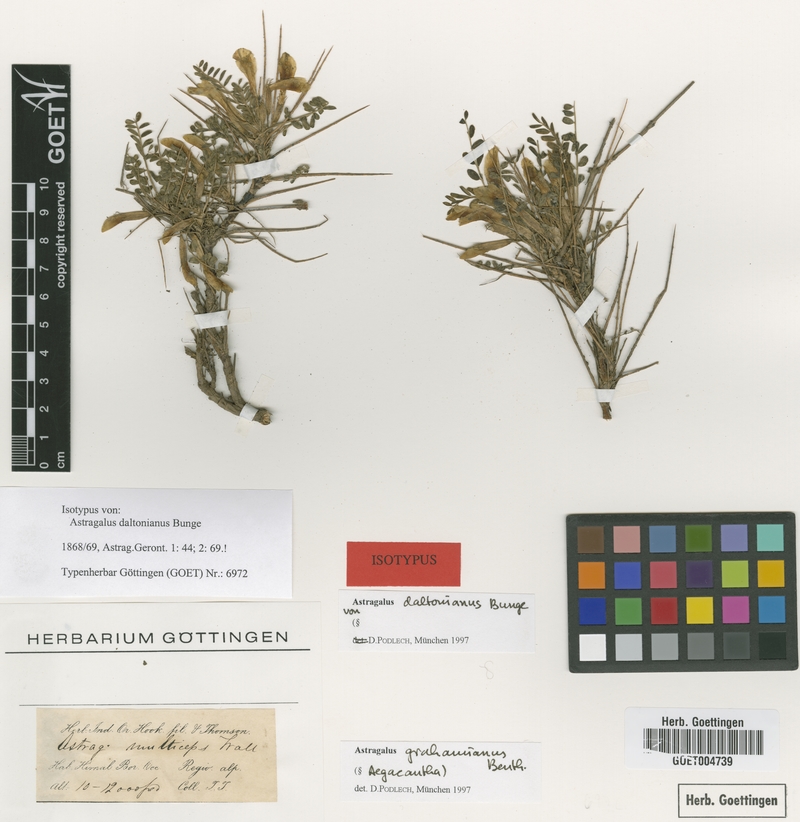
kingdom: Plantae
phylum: Tracheophyta
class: Magnoliopsida
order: Fabales
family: Fabaceae
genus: Astragalus
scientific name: Astragalus grahamianus
